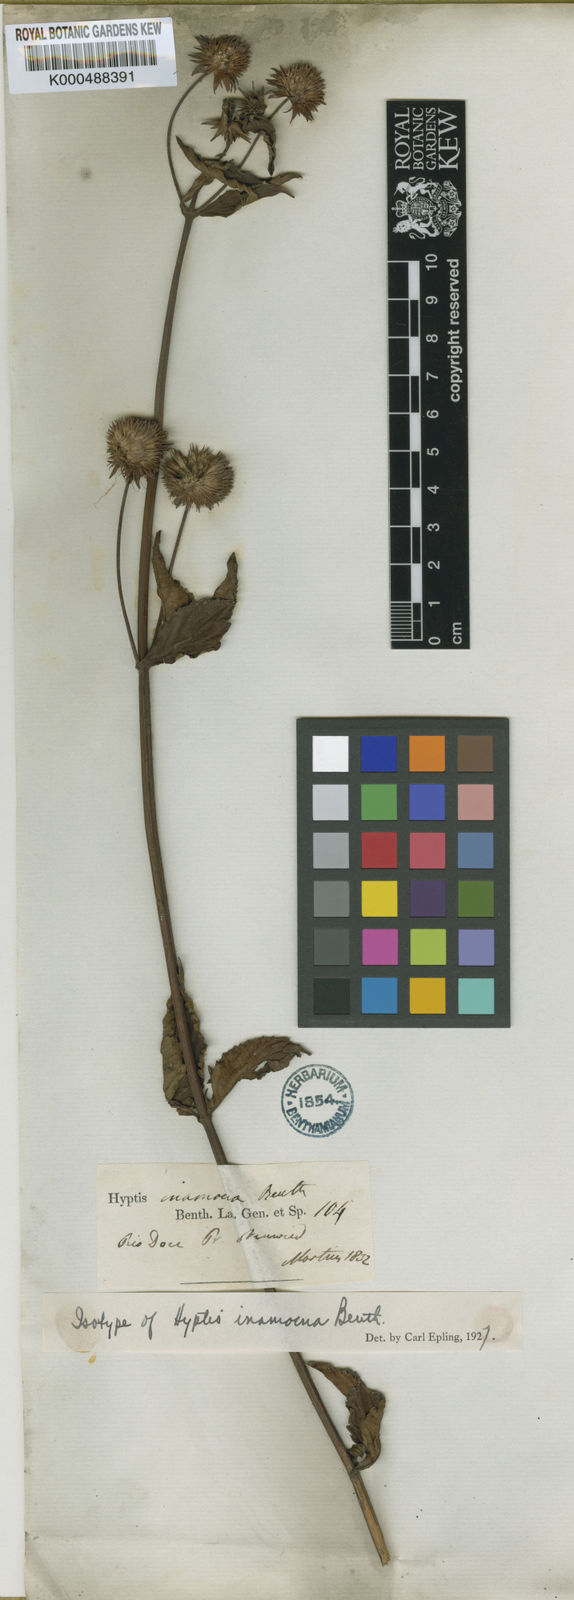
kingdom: Plantae
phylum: Tracheophyta
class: Magnoliopsida
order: Lamiales
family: Lamiaceae
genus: Hyptis
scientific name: Hyptis ramosa
